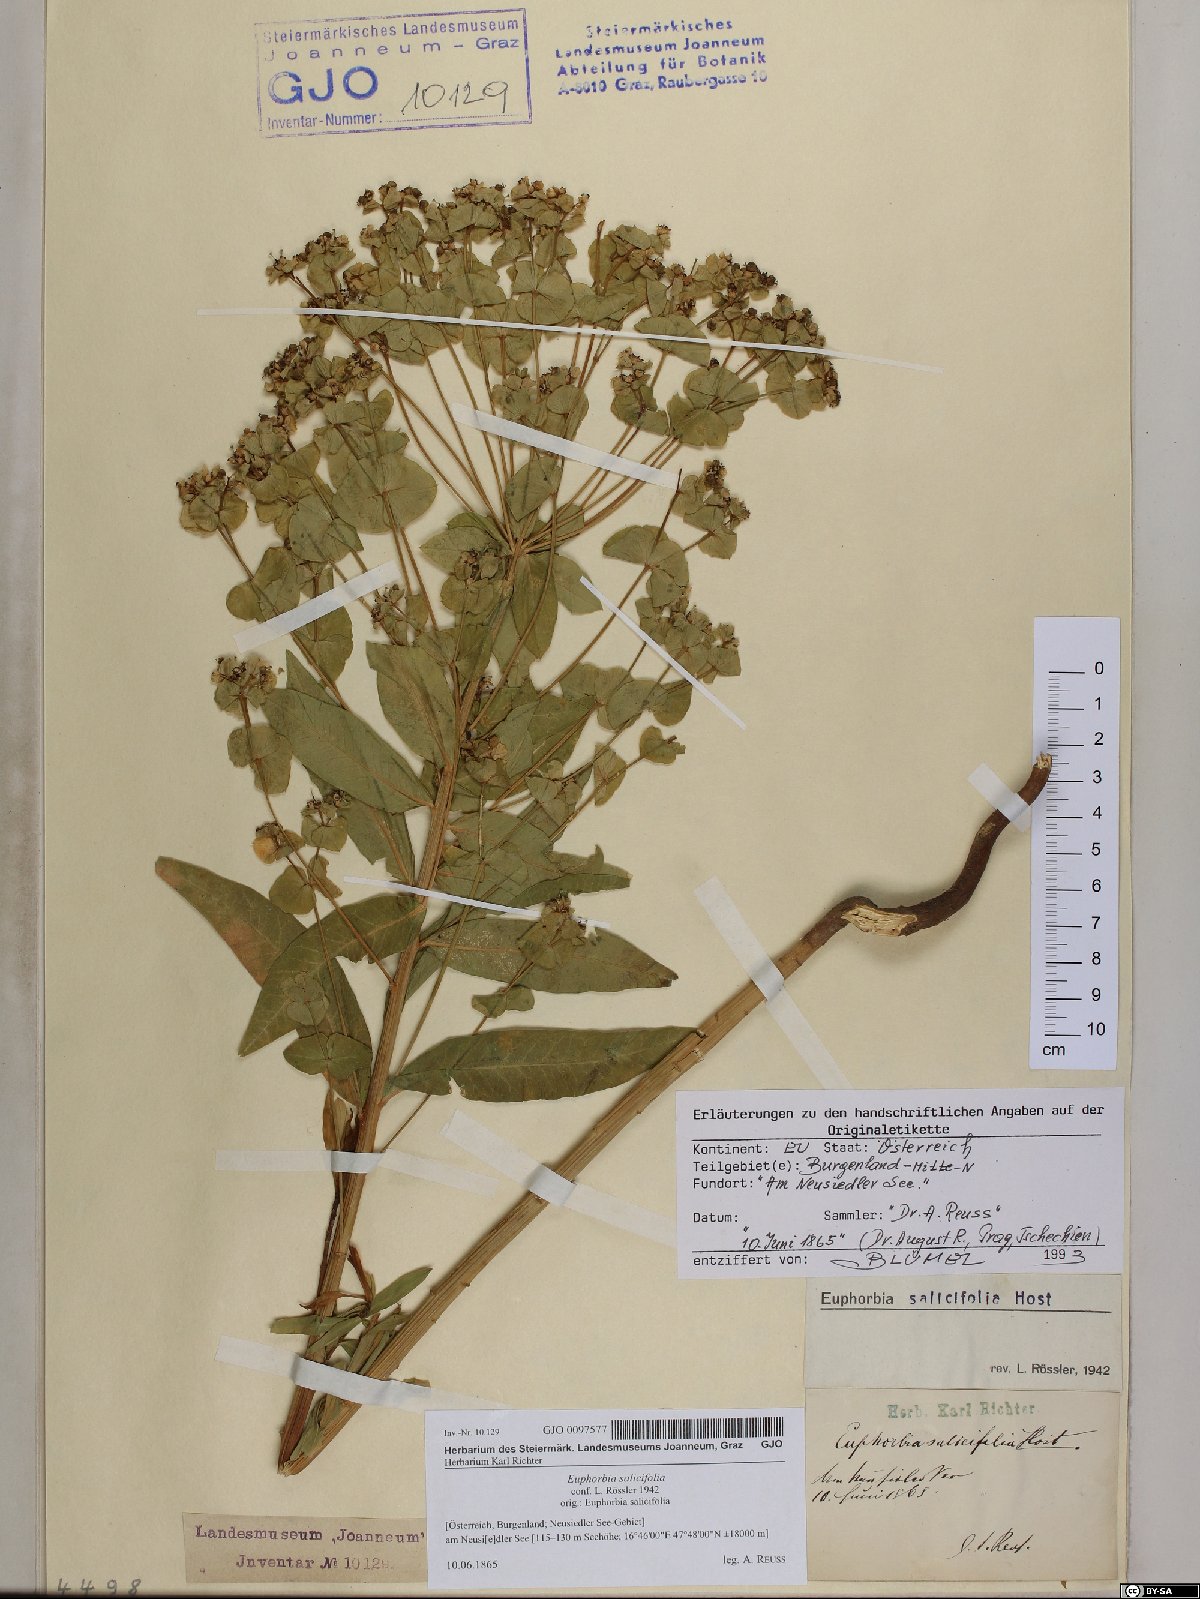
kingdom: Plantae
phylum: Tracheophyta
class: Magnoliopsida
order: Malpighiales
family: Euphorbiaceae
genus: Euphorbia
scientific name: Euphorbia salicifolia
